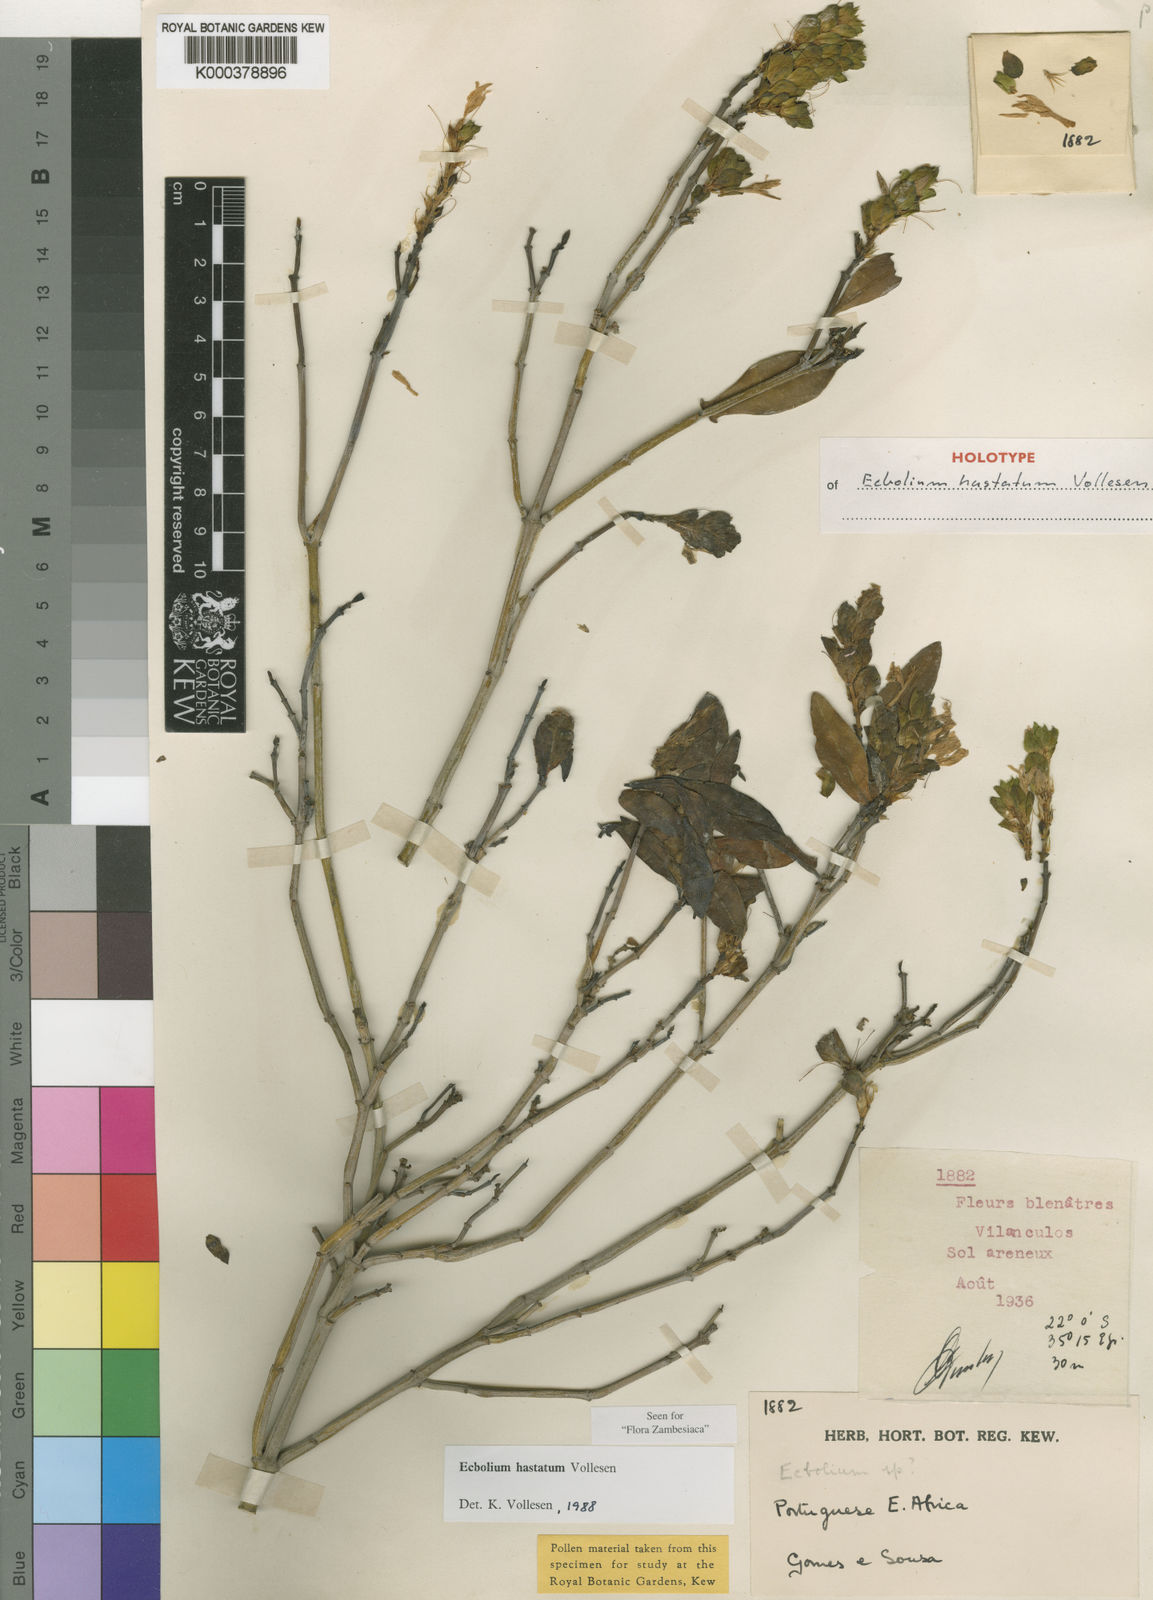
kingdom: Plantae
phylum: Tracheophyta
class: Magnoliopsida
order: Lamiales
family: Acanthaceae
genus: Ecbolium
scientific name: Ecbolium hastatum
